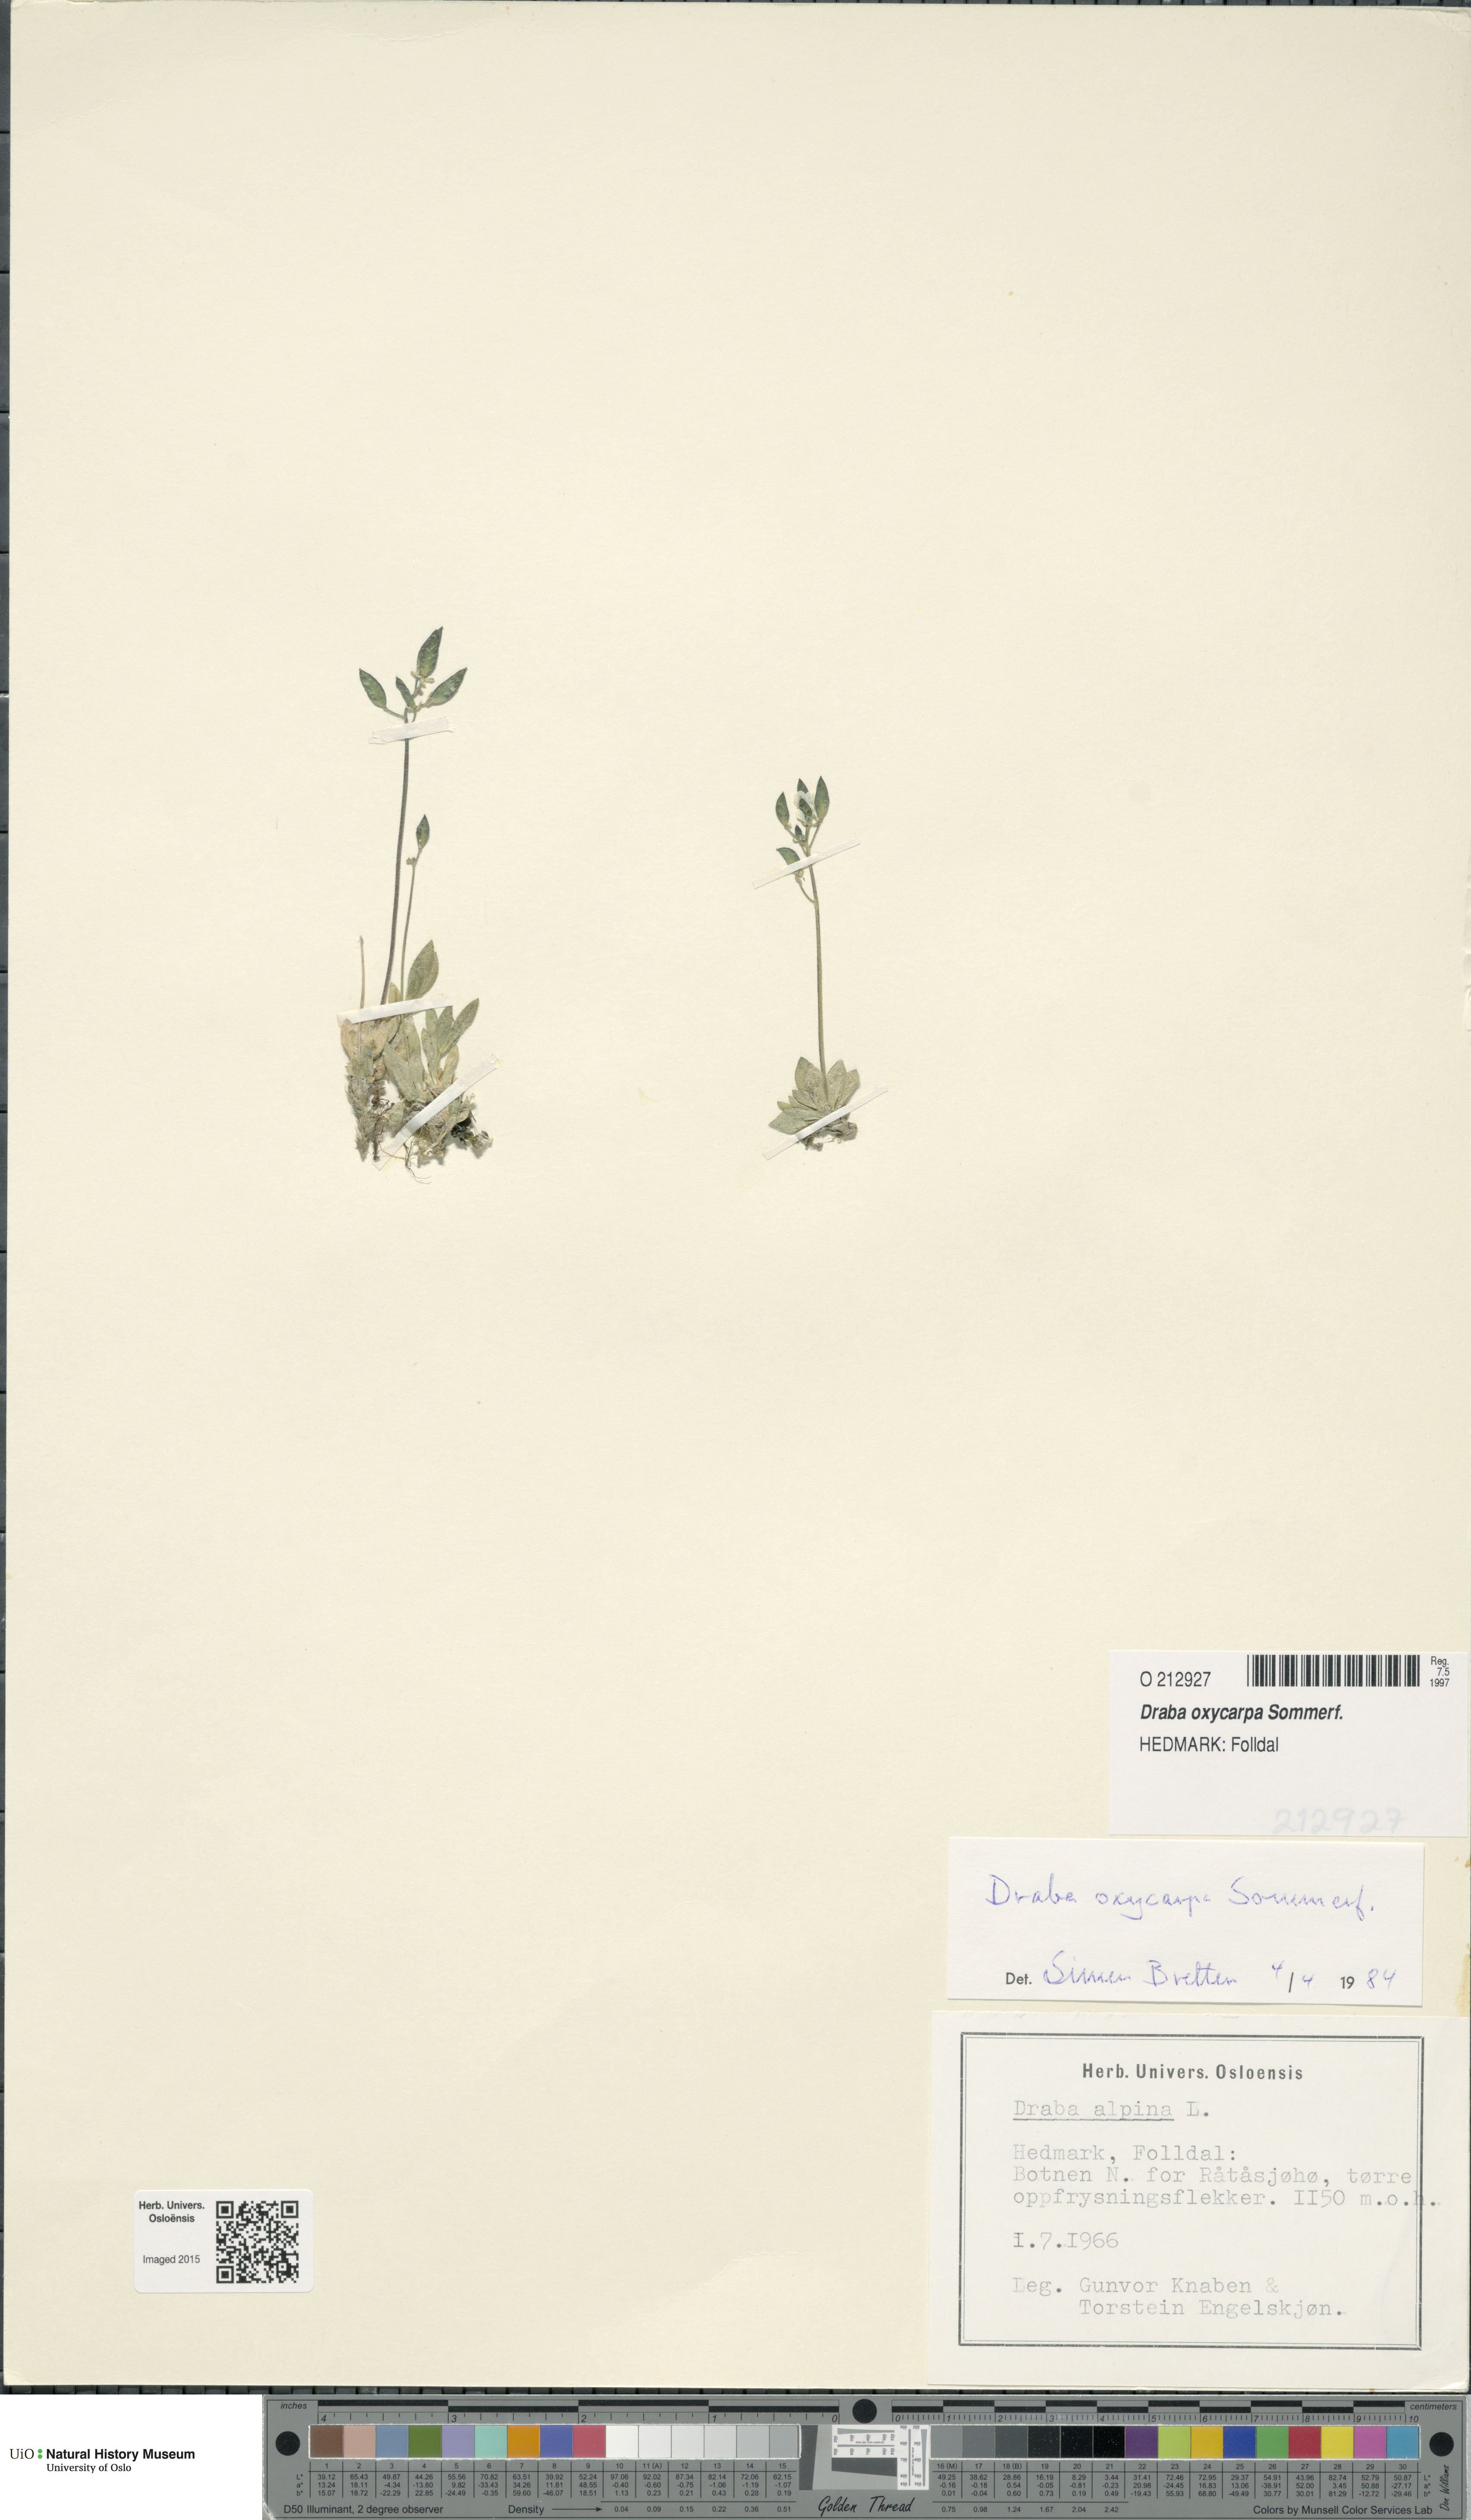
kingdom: Plantae
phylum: Tracheophyta
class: Magnoliopsida
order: Brassicales
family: Brassicaceae
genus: Draba
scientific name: Draba oxycarpa
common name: Sharp-fruited whitlow-grass
